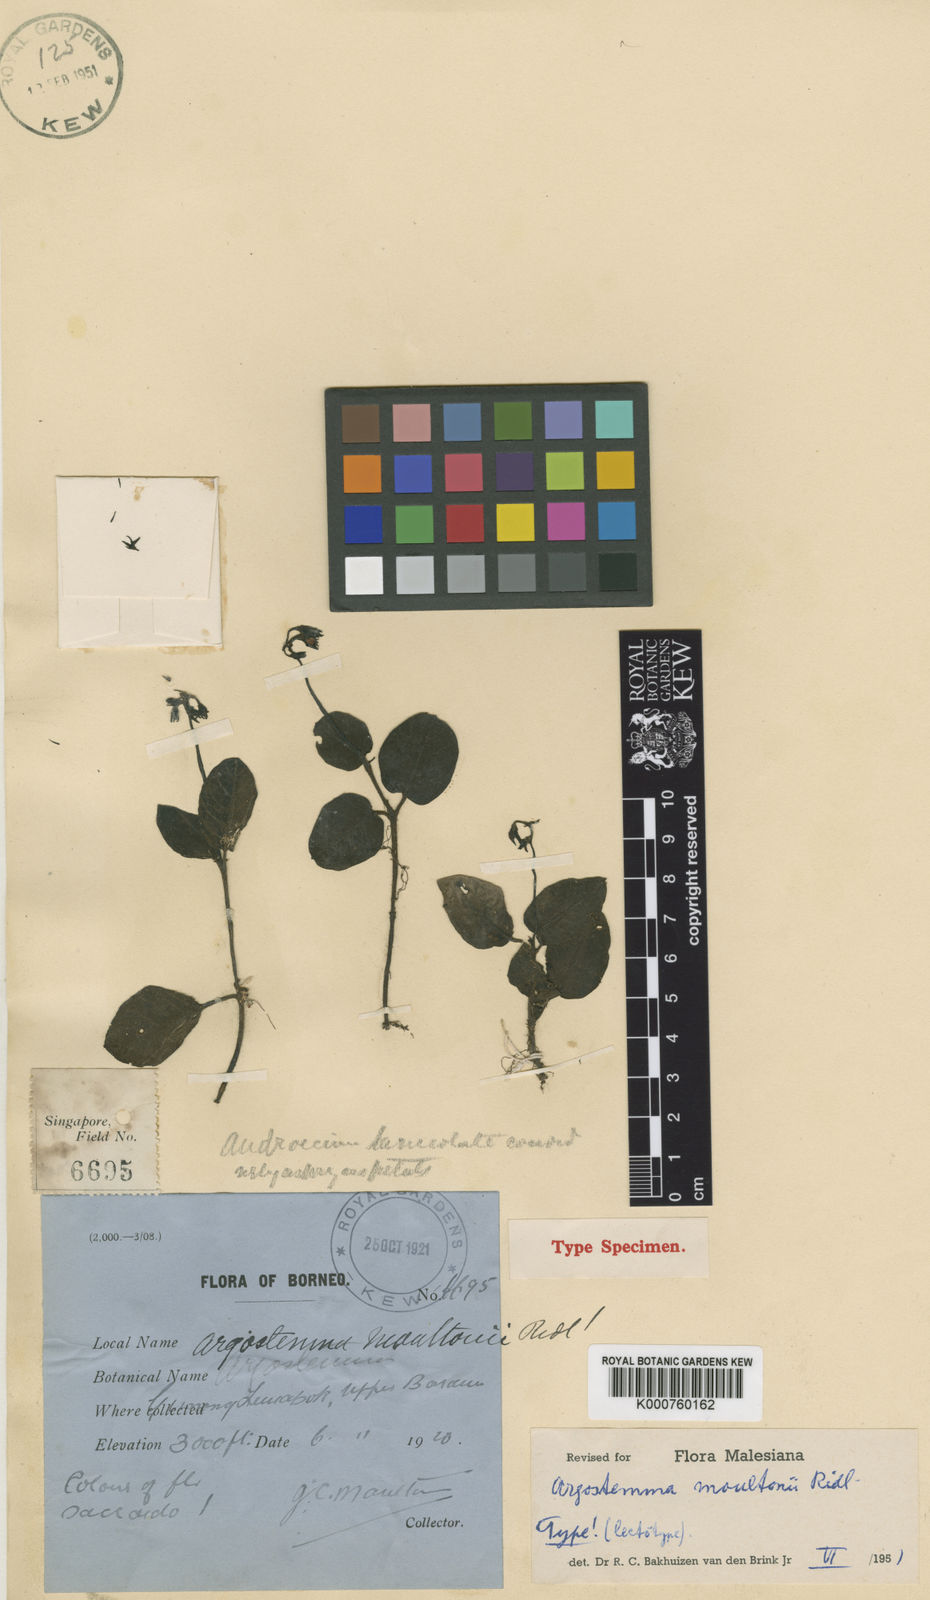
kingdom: Plantae
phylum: Tracheophyta
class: Magnoliopsida
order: Gentianales
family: Rubiaceae
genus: Argostemma
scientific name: Argostemma moultonii
